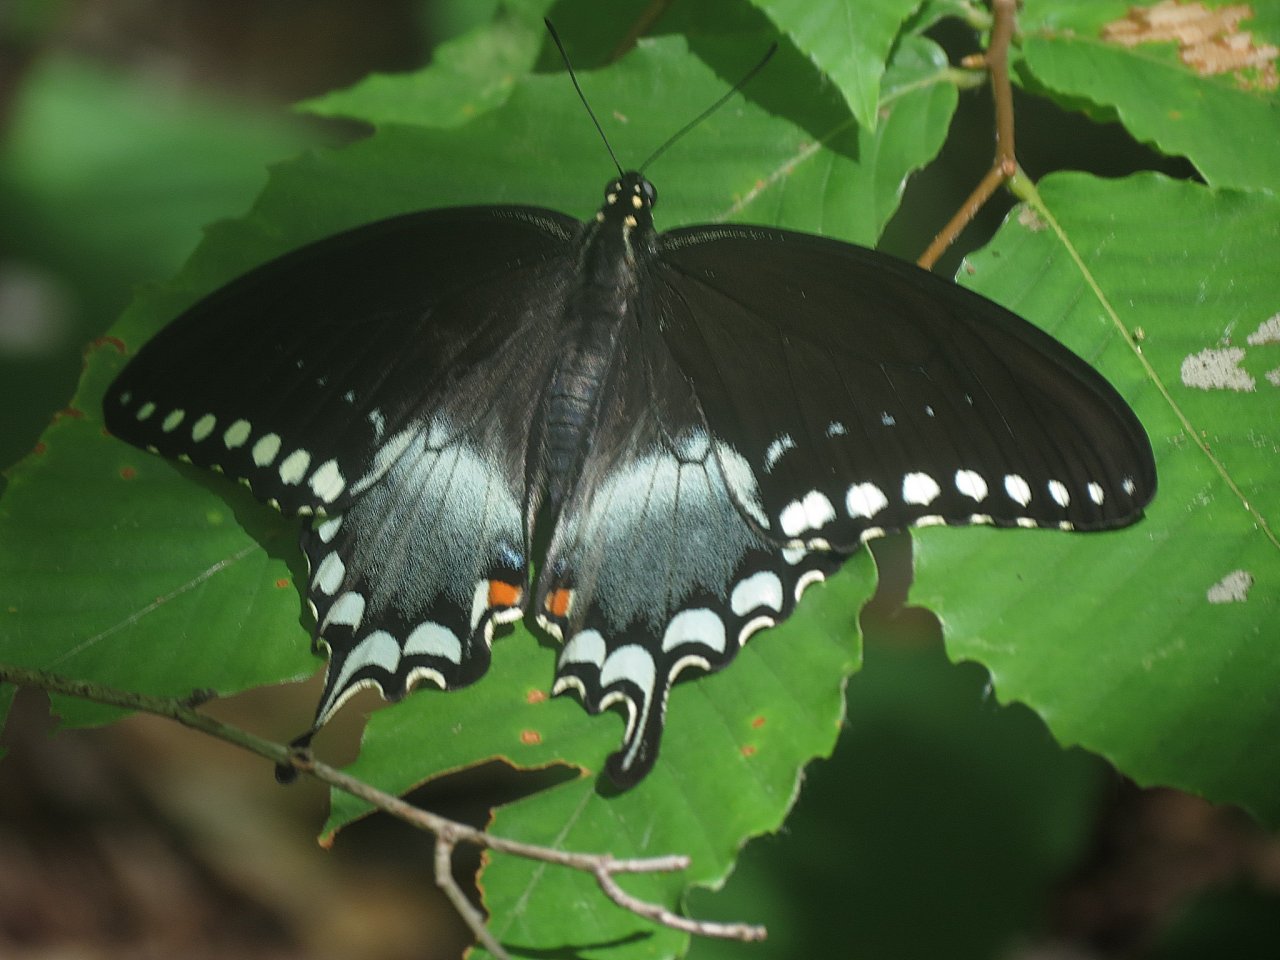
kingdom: Animalia
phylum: Arthropoda
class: Insecta
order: Lepidoptera
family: Papilionidae
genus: Pterourus
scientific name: Pterourus troilus
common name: Spicebush Swallowtail
